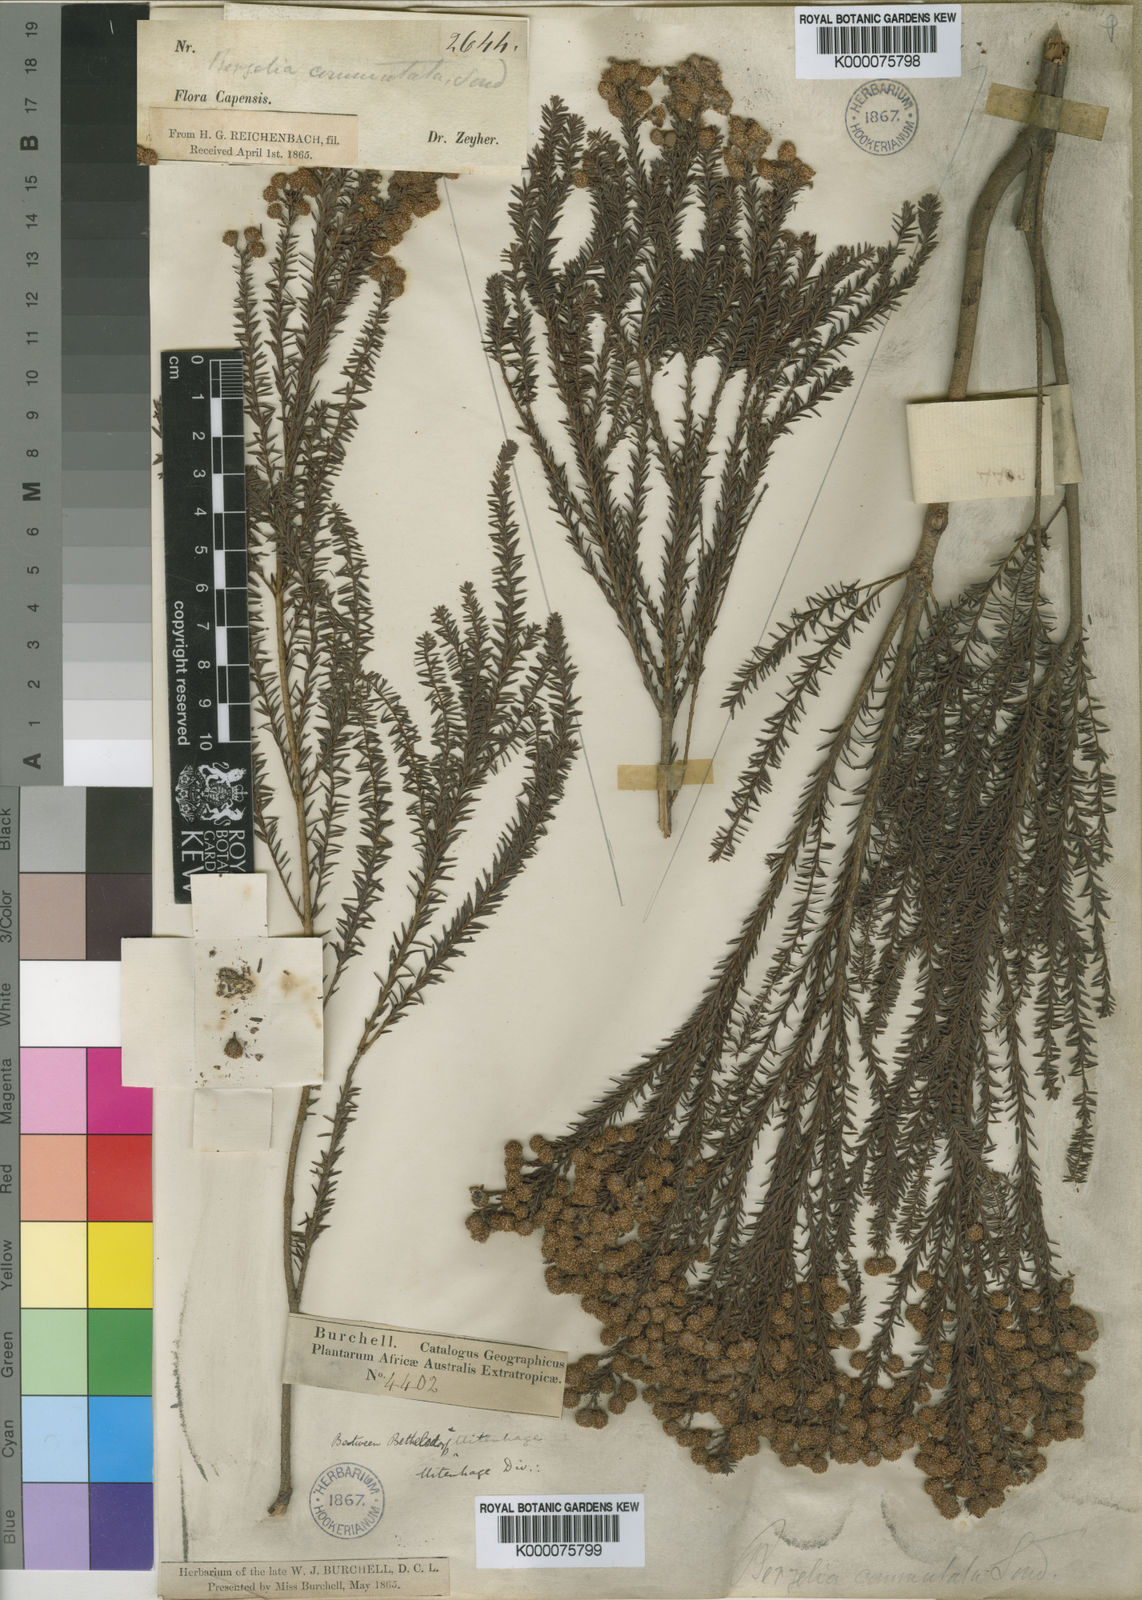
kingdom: Plantae
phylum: Tracheophyta
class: Magnoliopsida
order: Bruniales
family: Bruniaceae
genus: Berzelia
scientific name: Berzelia commutata
